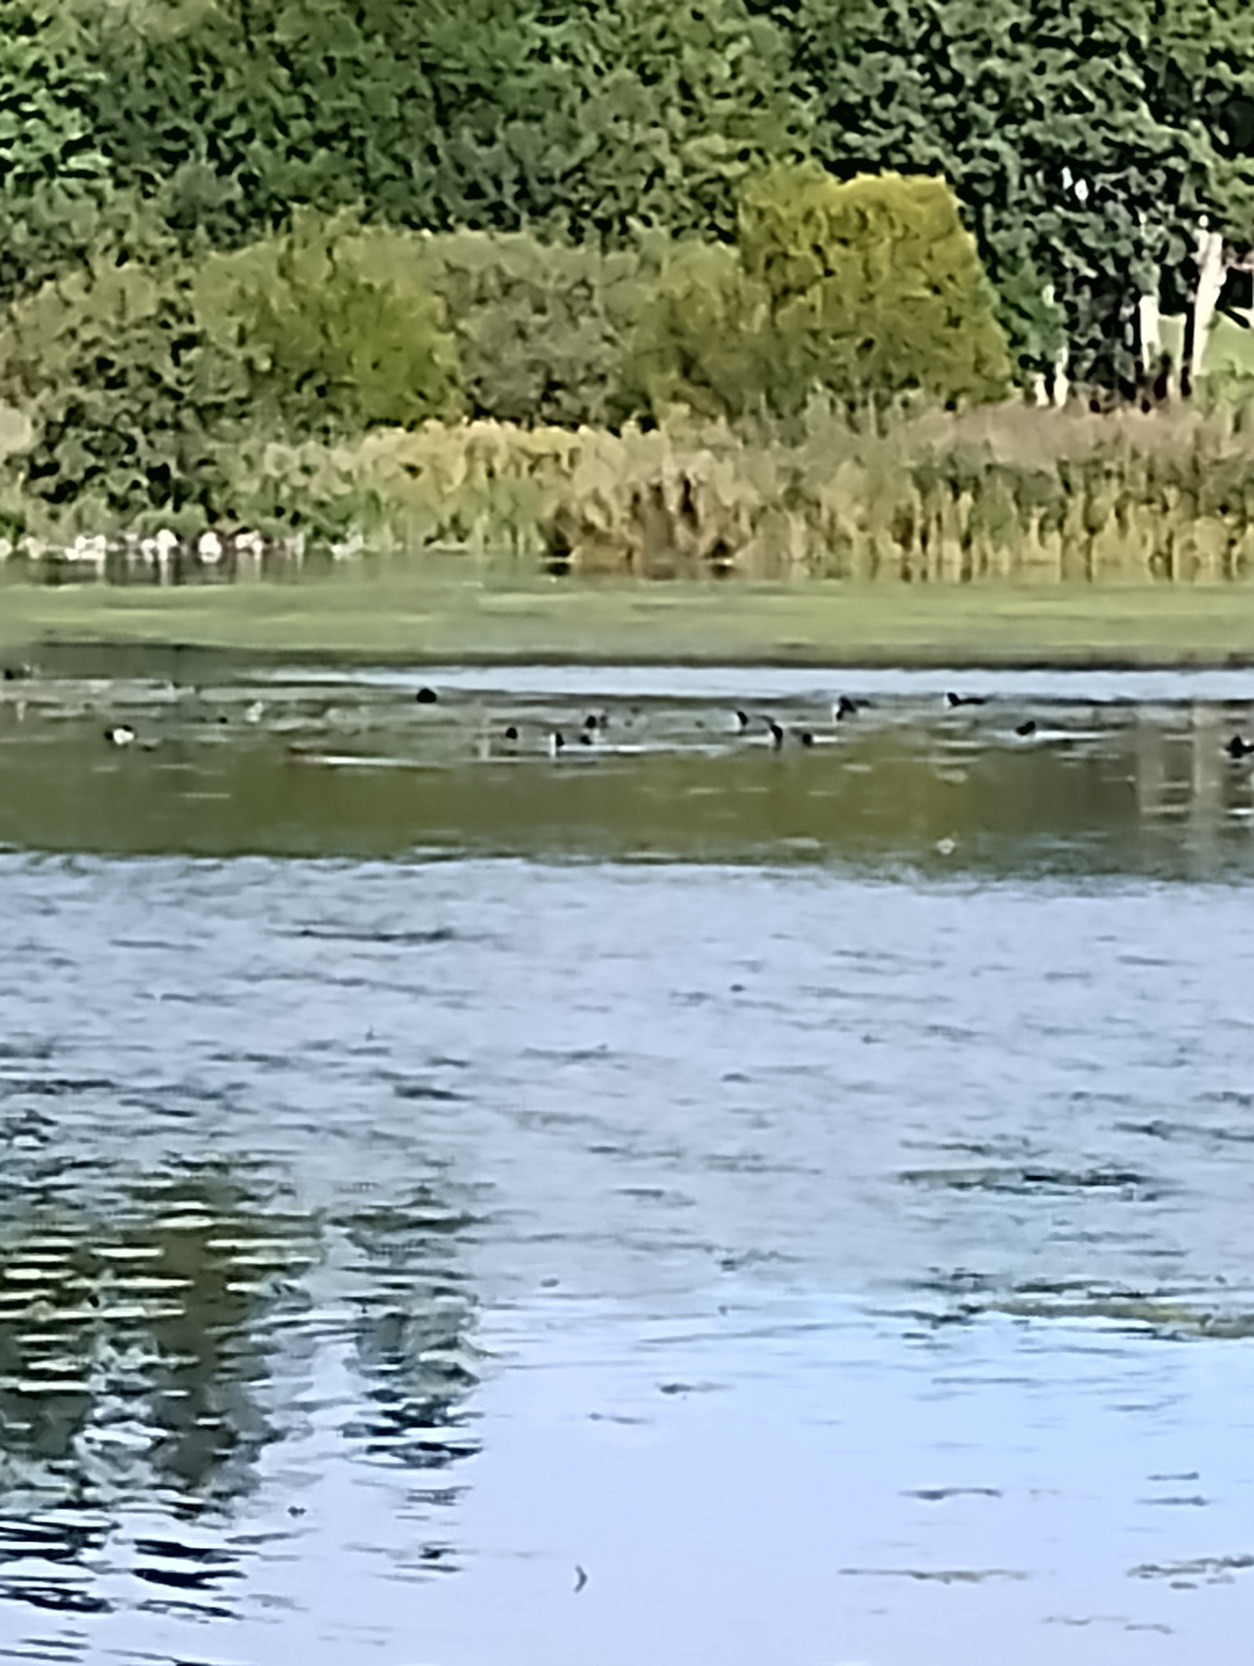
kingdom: Animalia
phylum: Chordata
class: Aves
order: Gruiformes
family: Rallidae
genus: Fulica
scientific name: Fulica atra
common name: Blishøne
